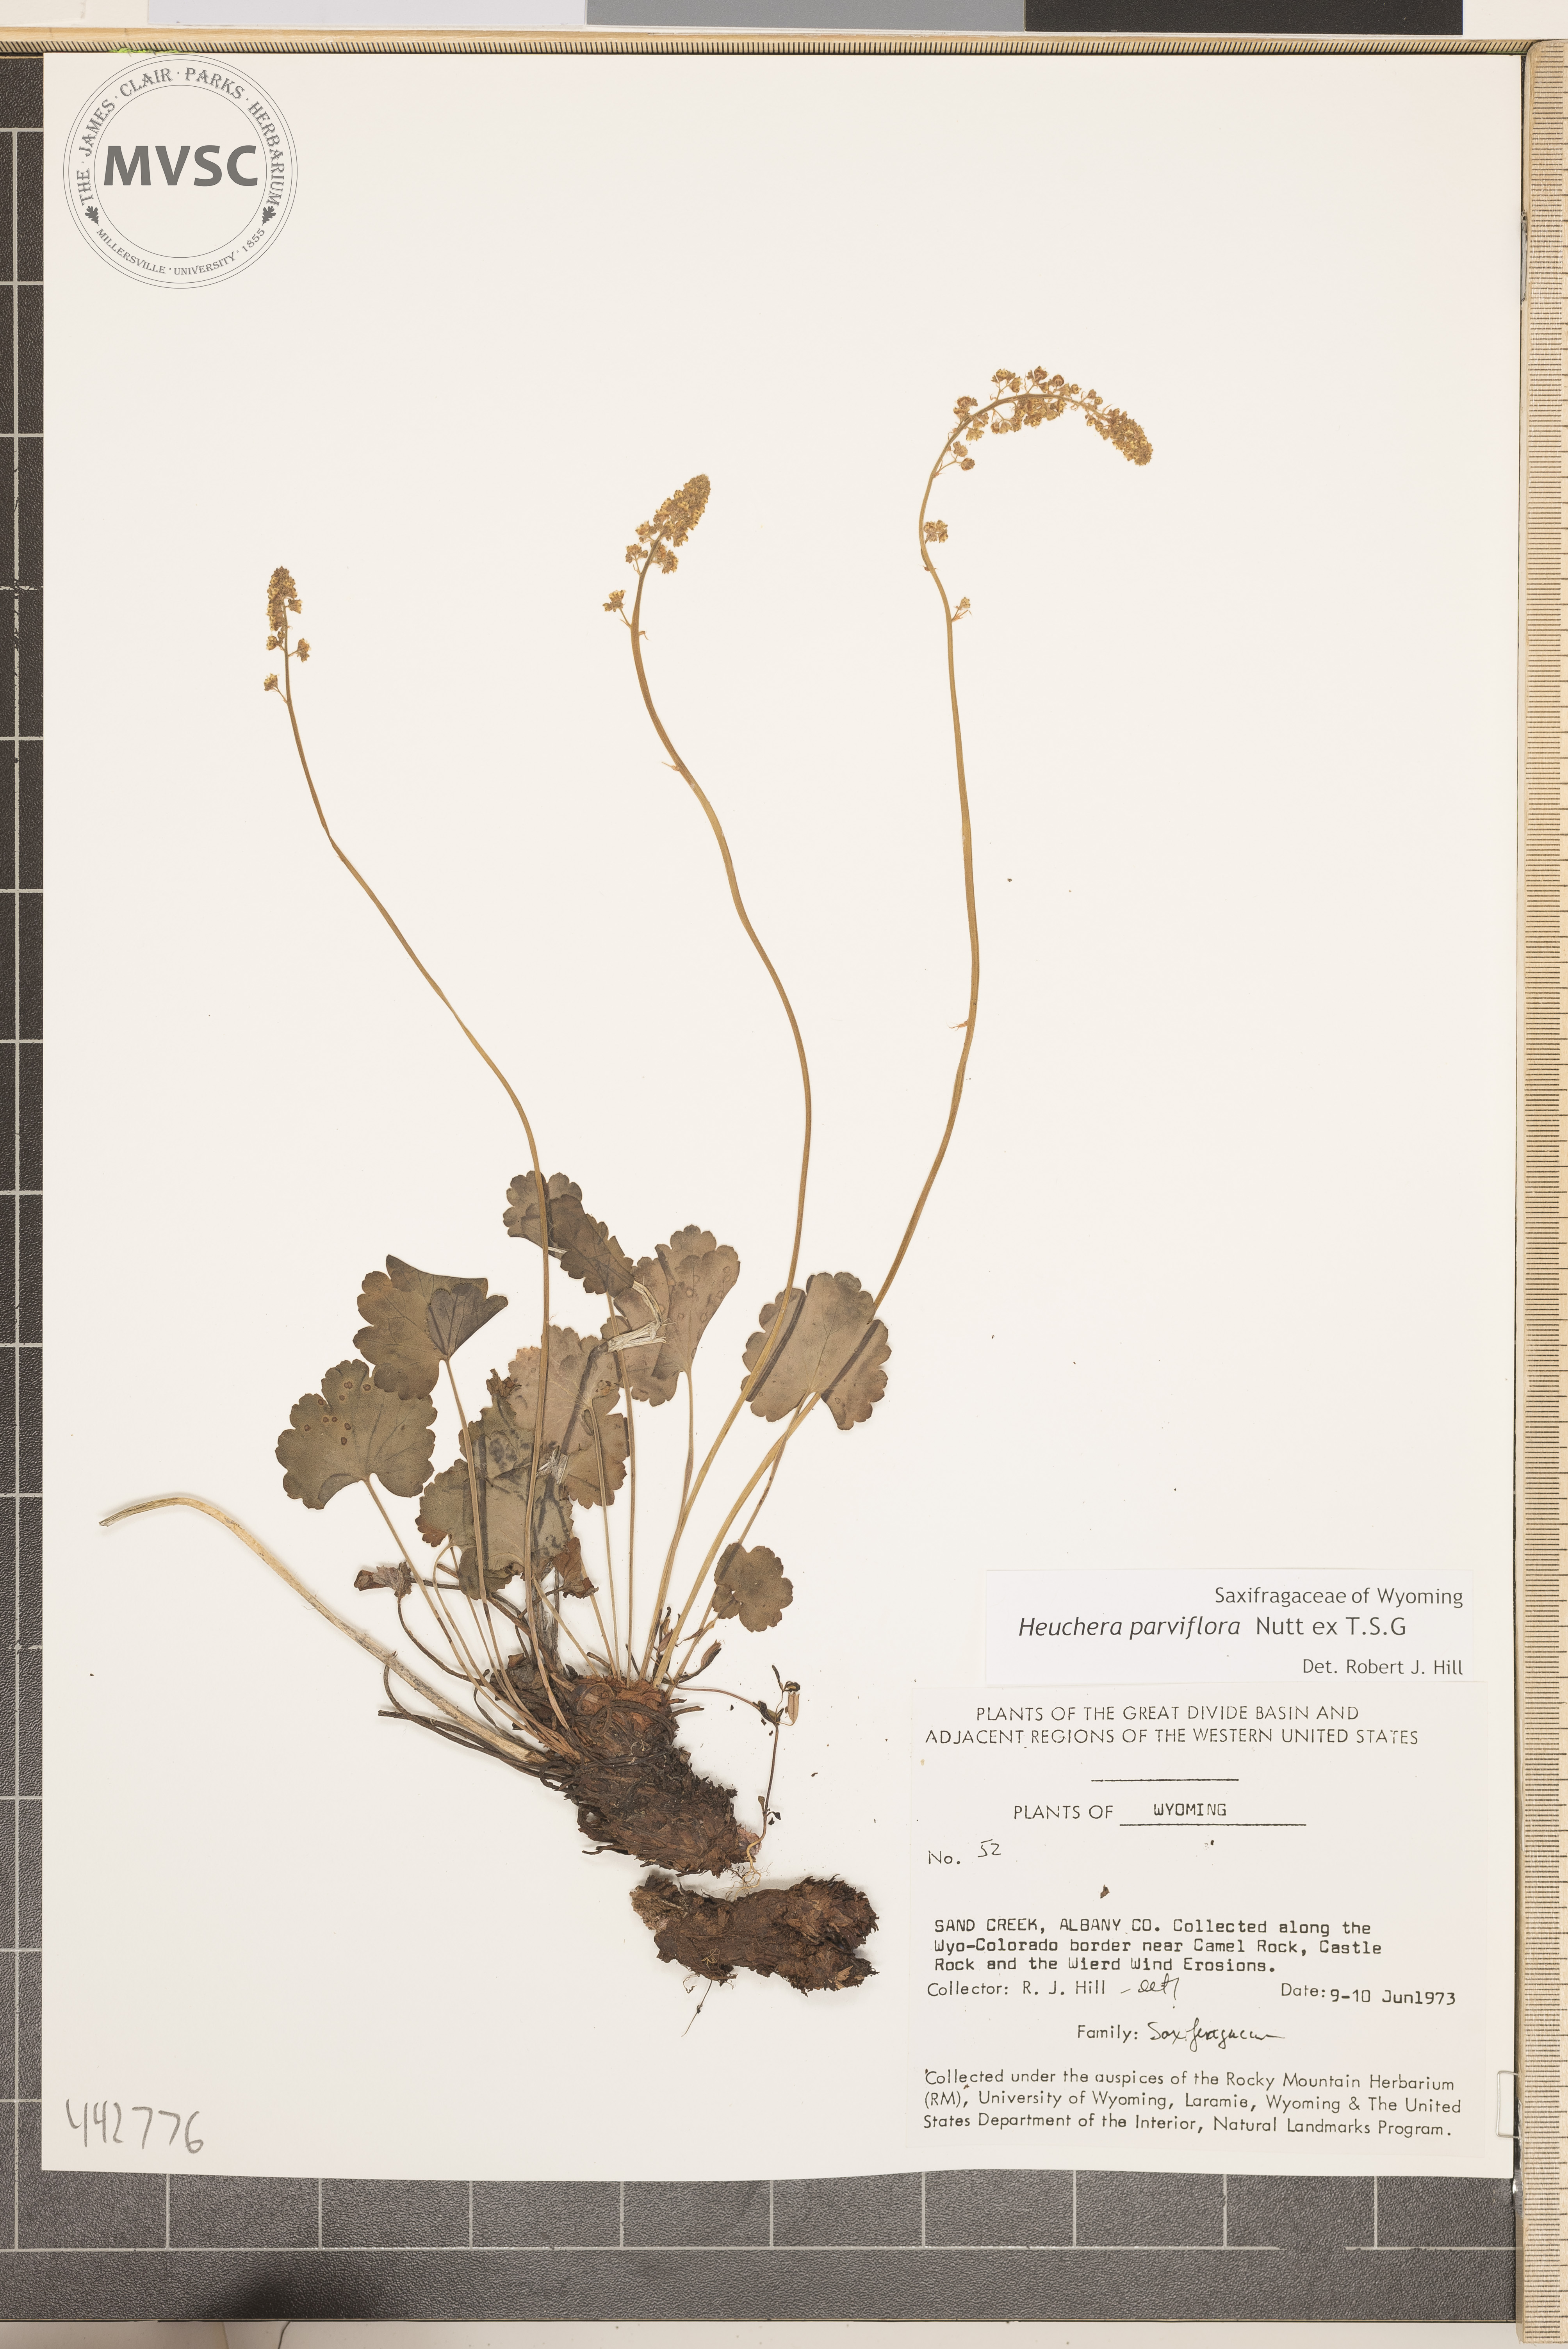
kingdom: Plantae
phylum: Tracheophyta
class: Magnoliopsida
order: Saxifragales
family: Saxifragaceae
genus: Heuchera
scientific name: Heuchera
